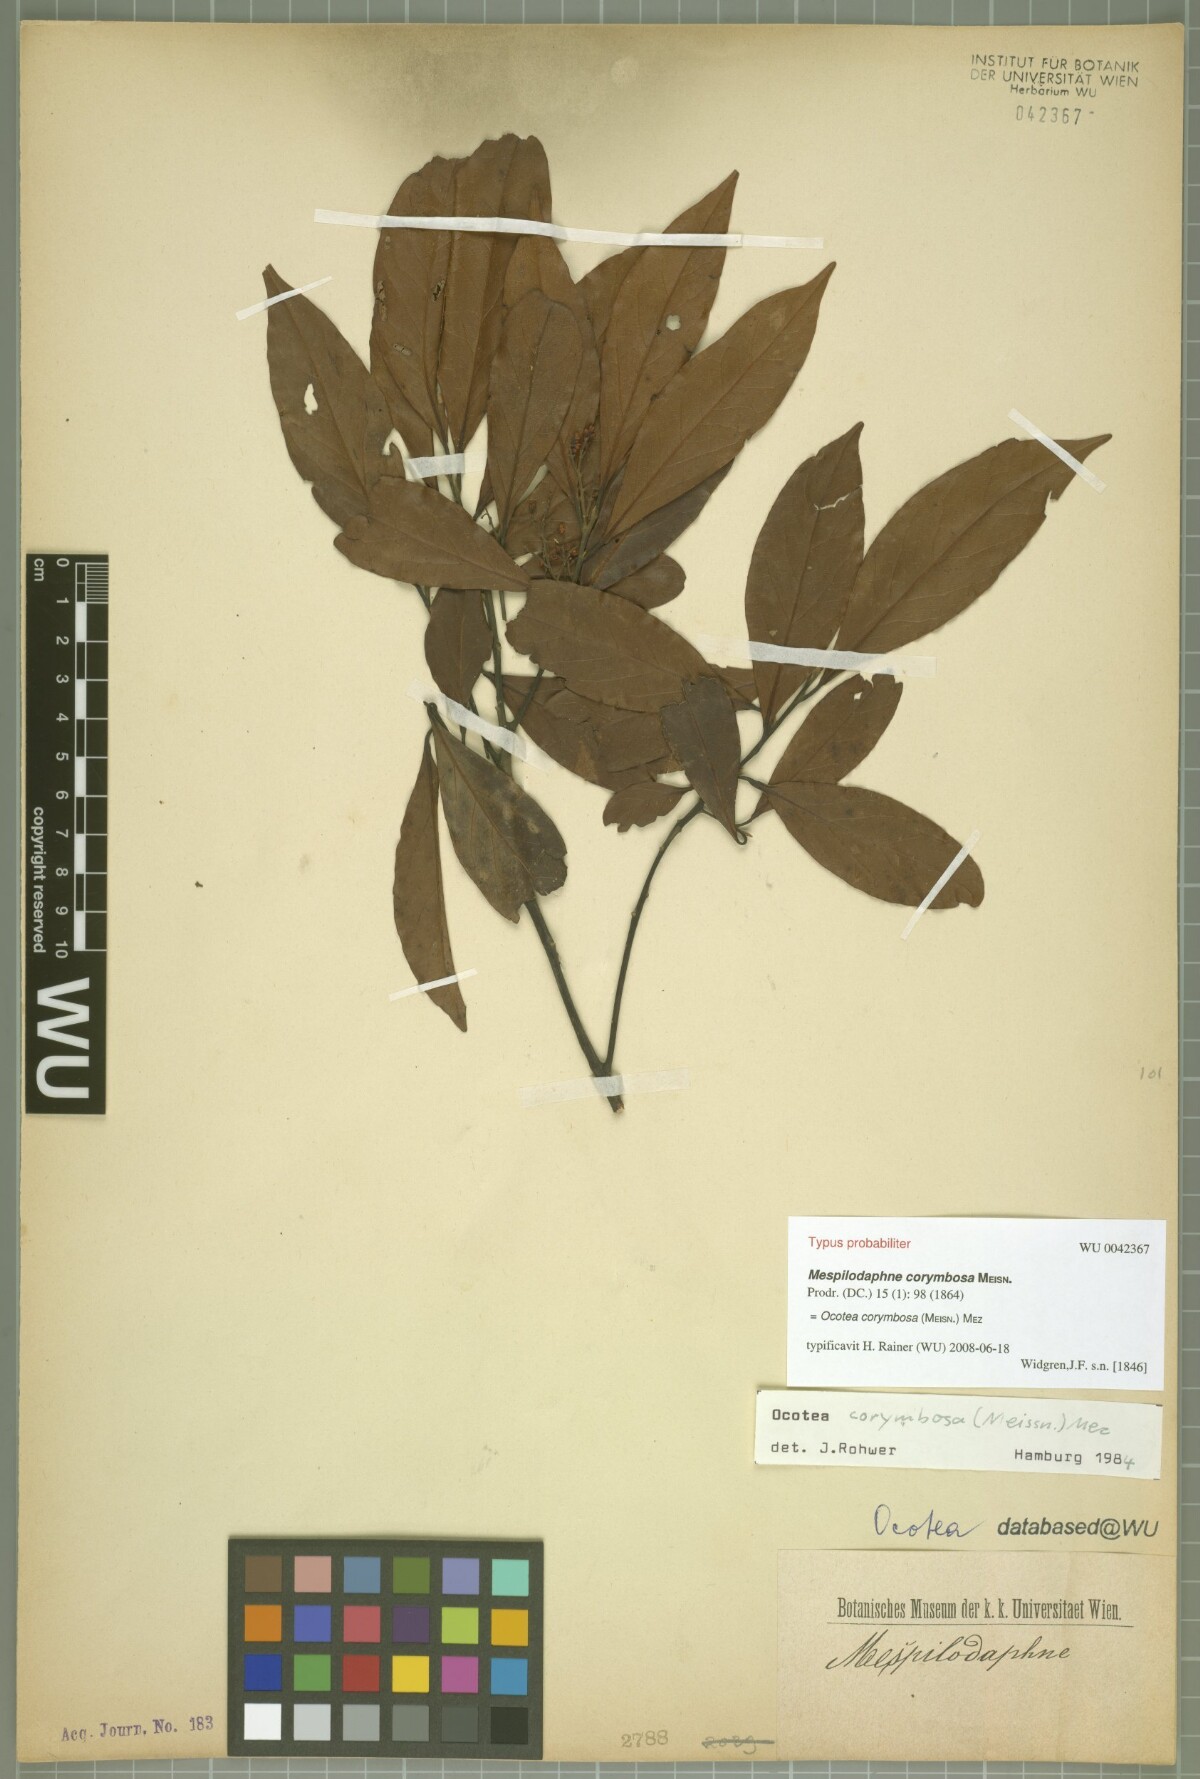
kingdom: Plantae
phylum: Tracheophyta
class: Magnoliopsida
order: Laurales
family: Lauraceae
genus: Mespilodaphne
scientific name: Mespilodaphne corymbosa
